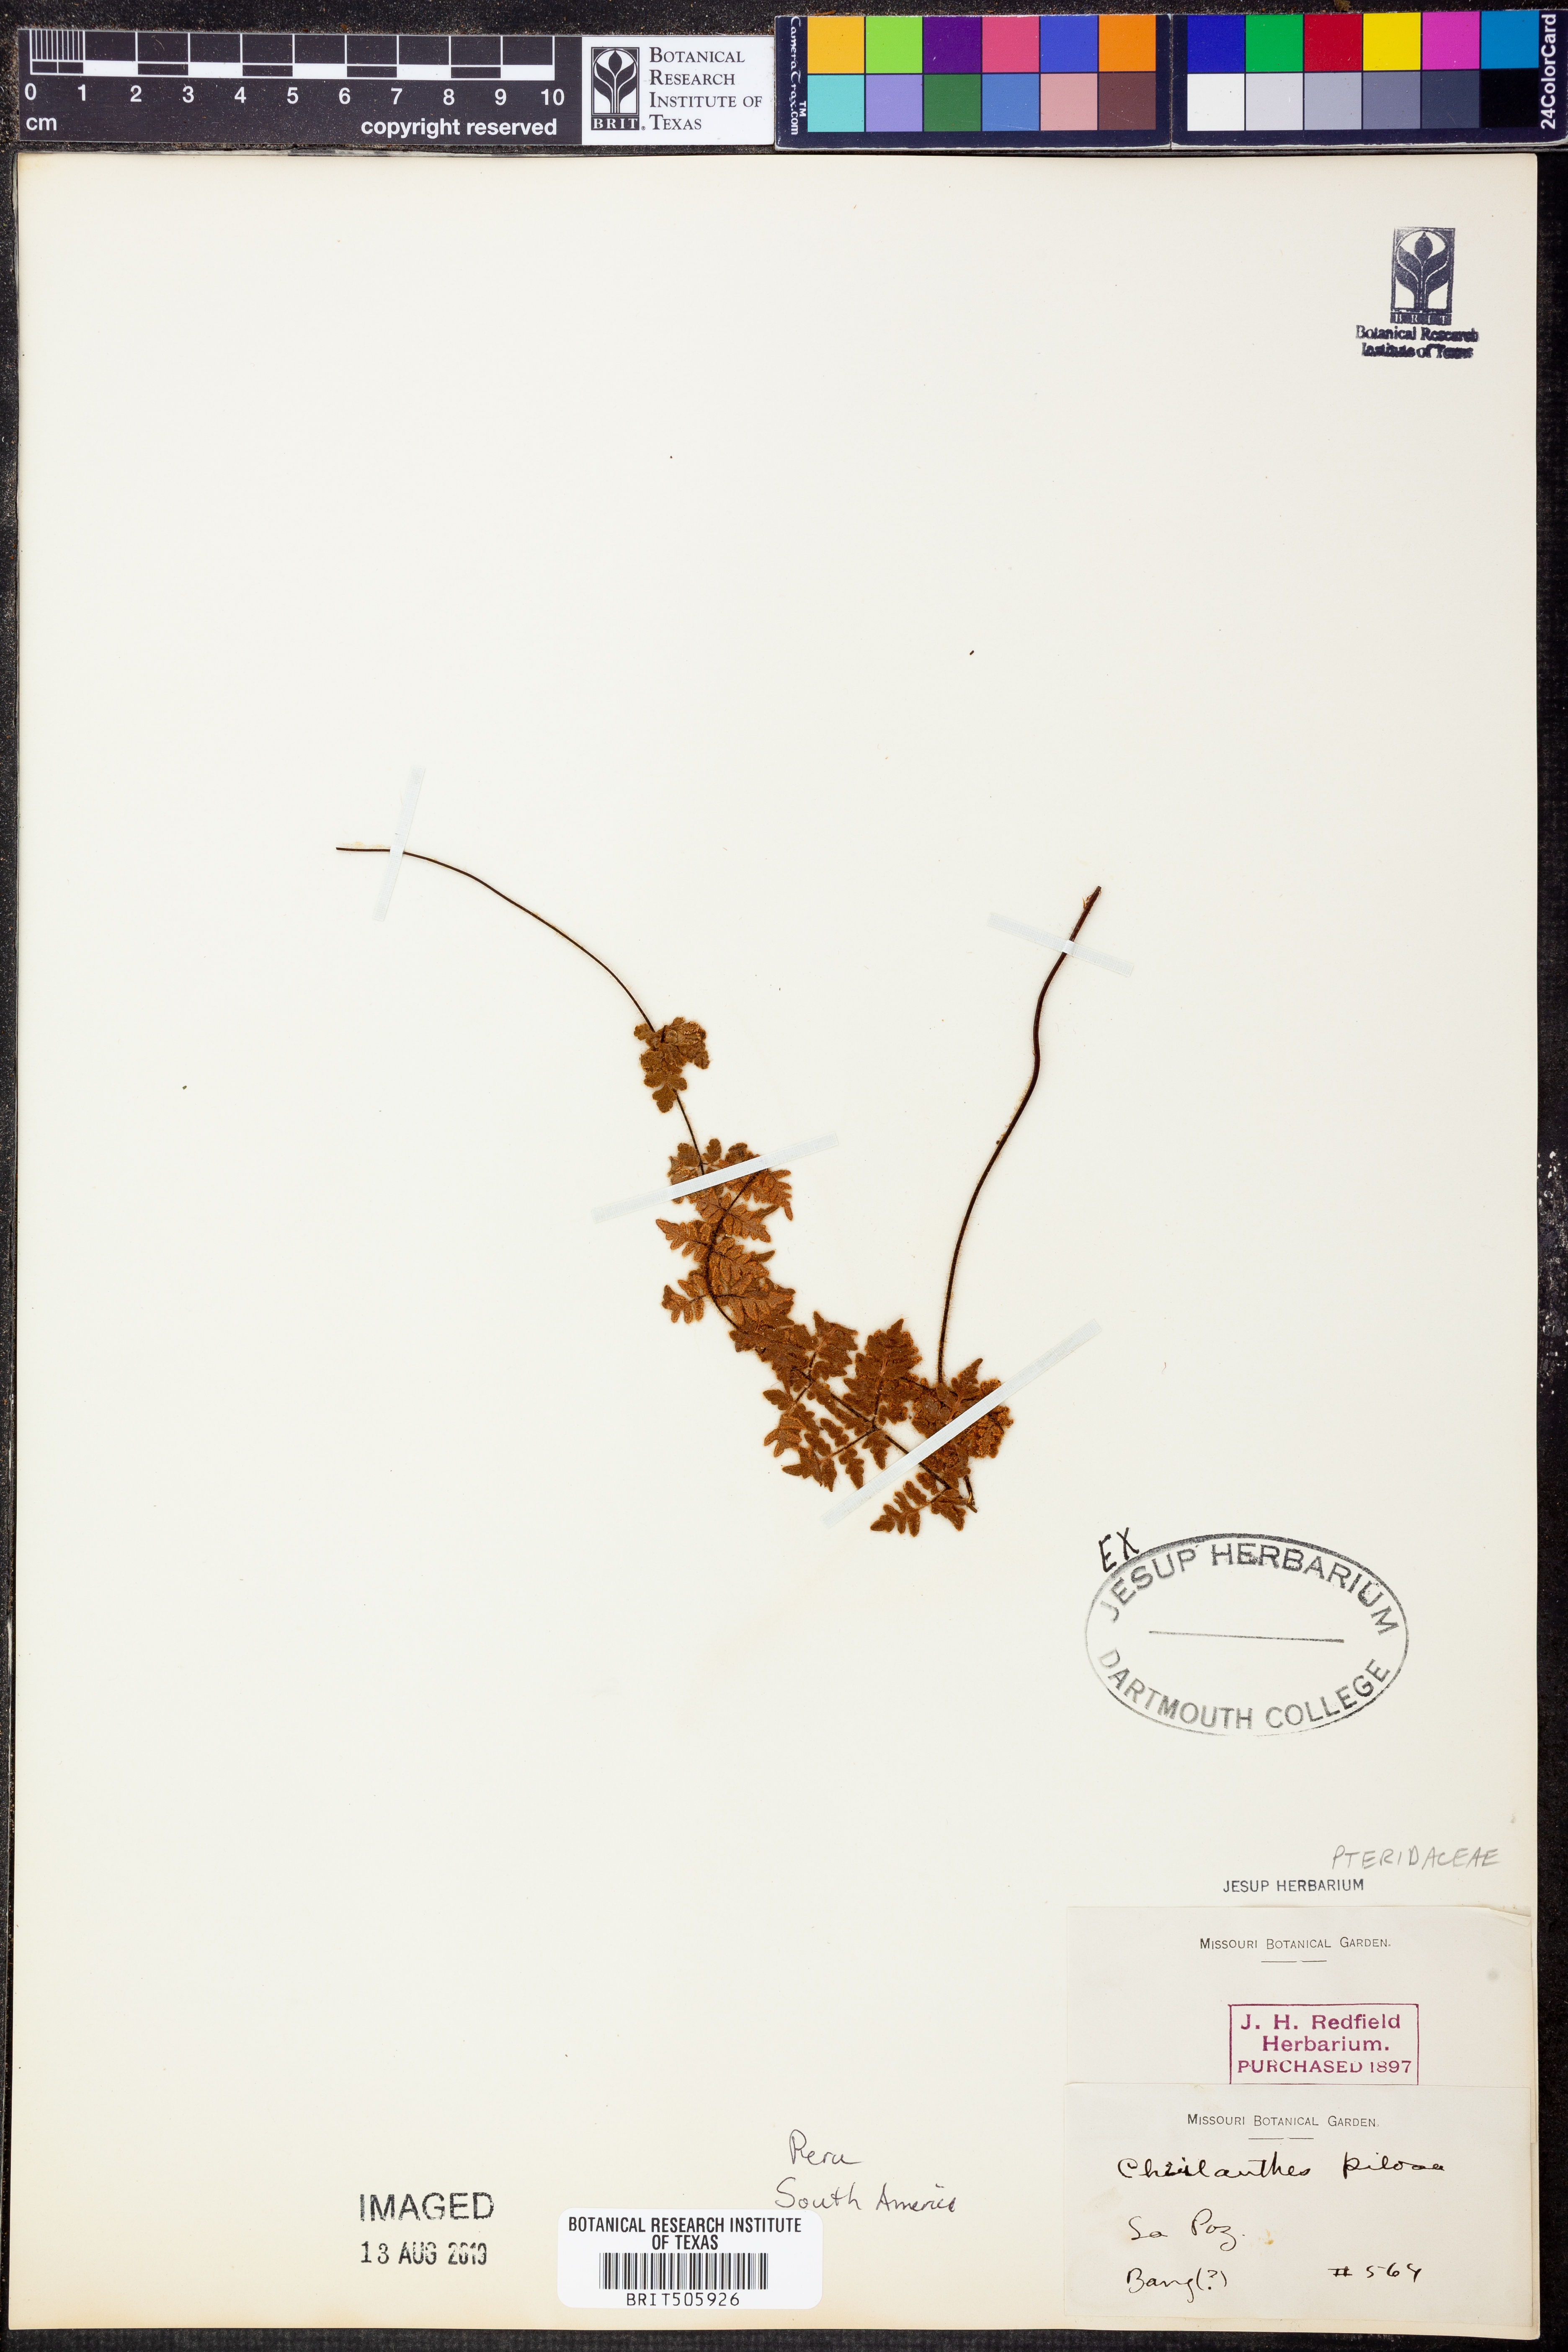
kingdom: Plantae
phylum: Tracheophyta
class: Polypodiopsida
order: Polypodiales
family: Pteridaceae
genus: Cheilanthes
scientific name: Cheilanthes pilosa
